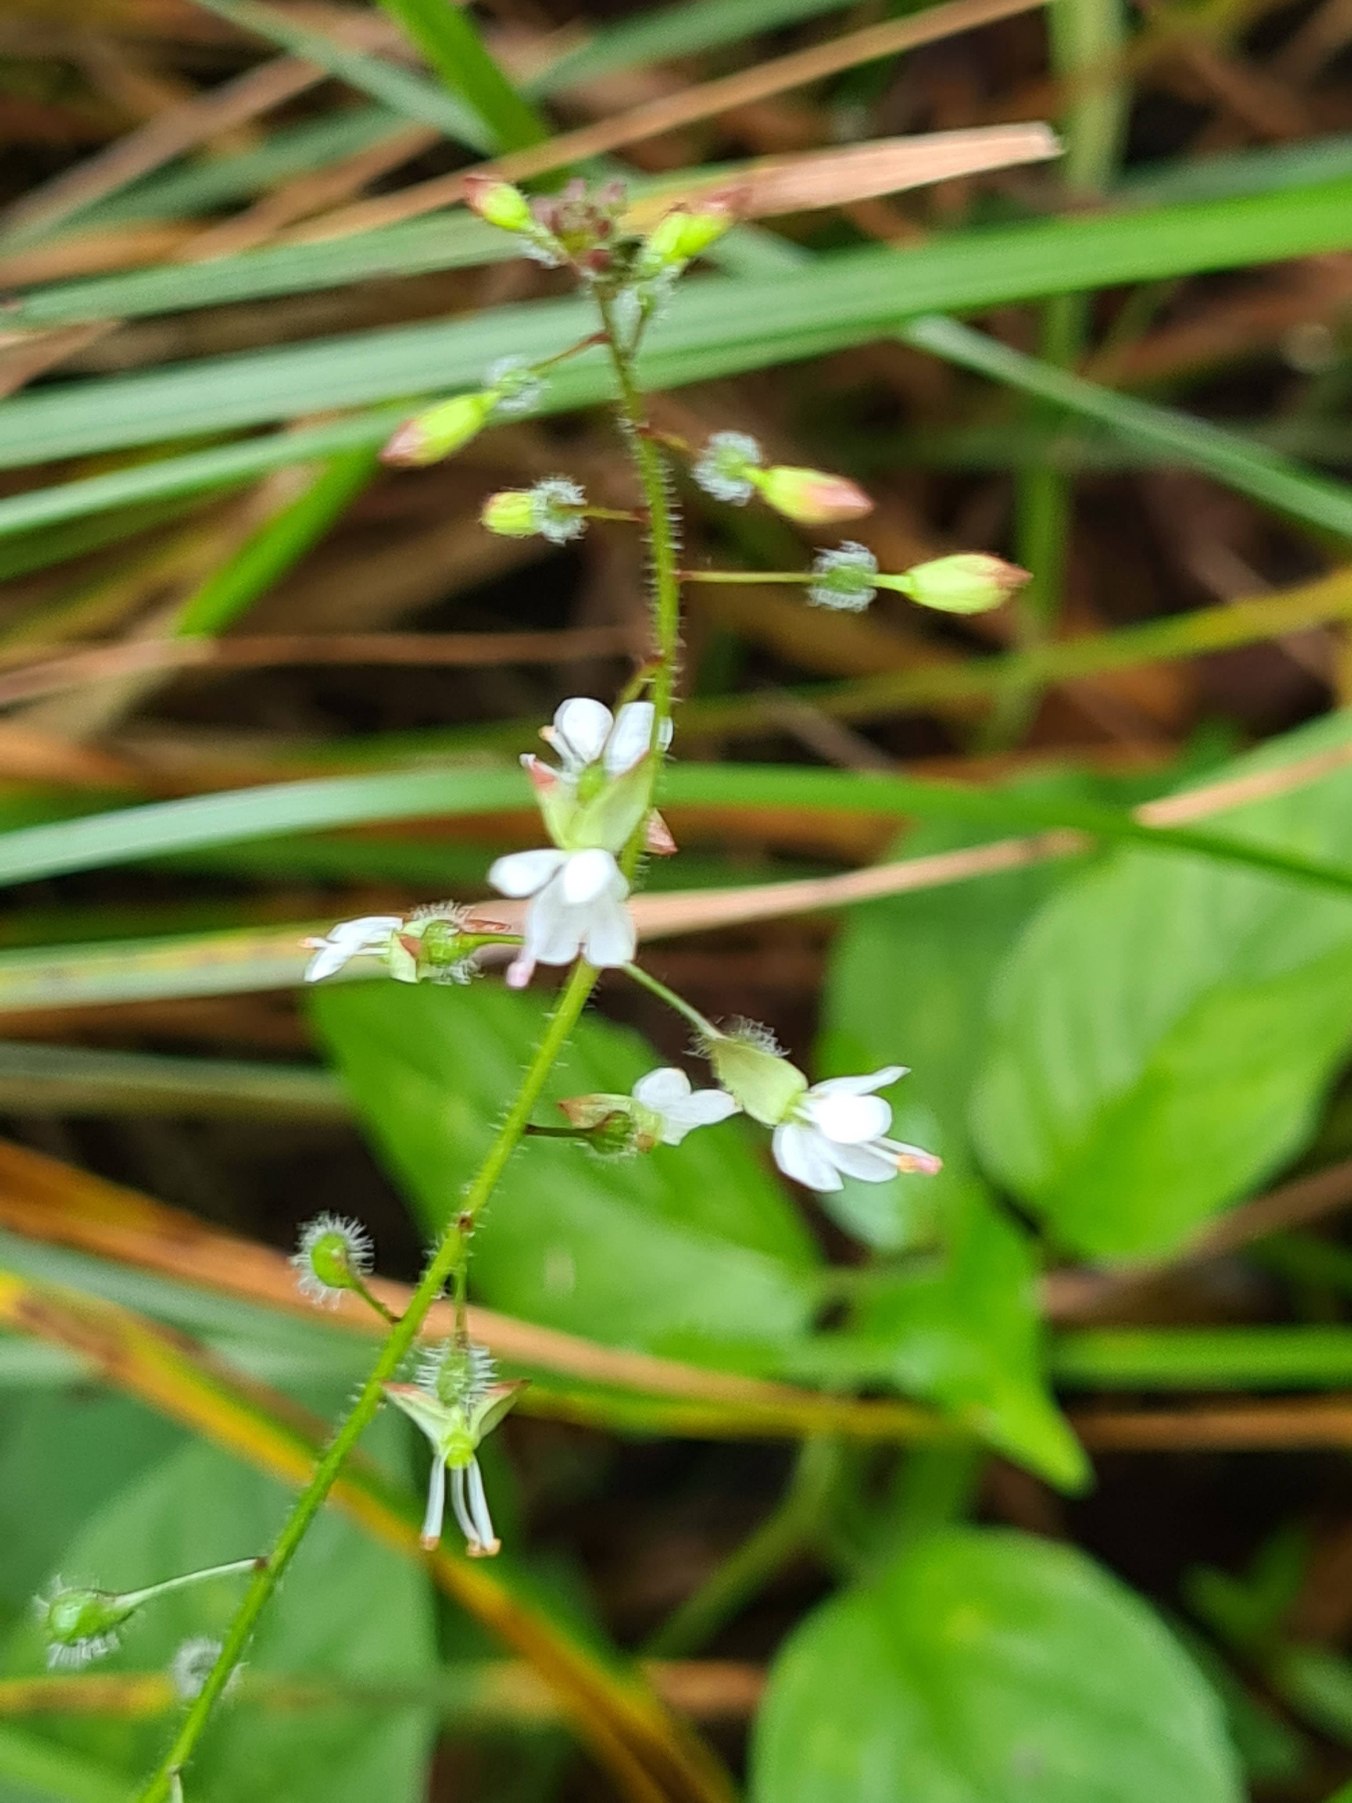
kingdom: Plantae
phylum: Tracheophyta
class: Magnoliopsida
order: Myrtales
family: Onagraceae
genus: Circaea
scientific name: Circaea lutetiana
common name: Dunet steffensurt
